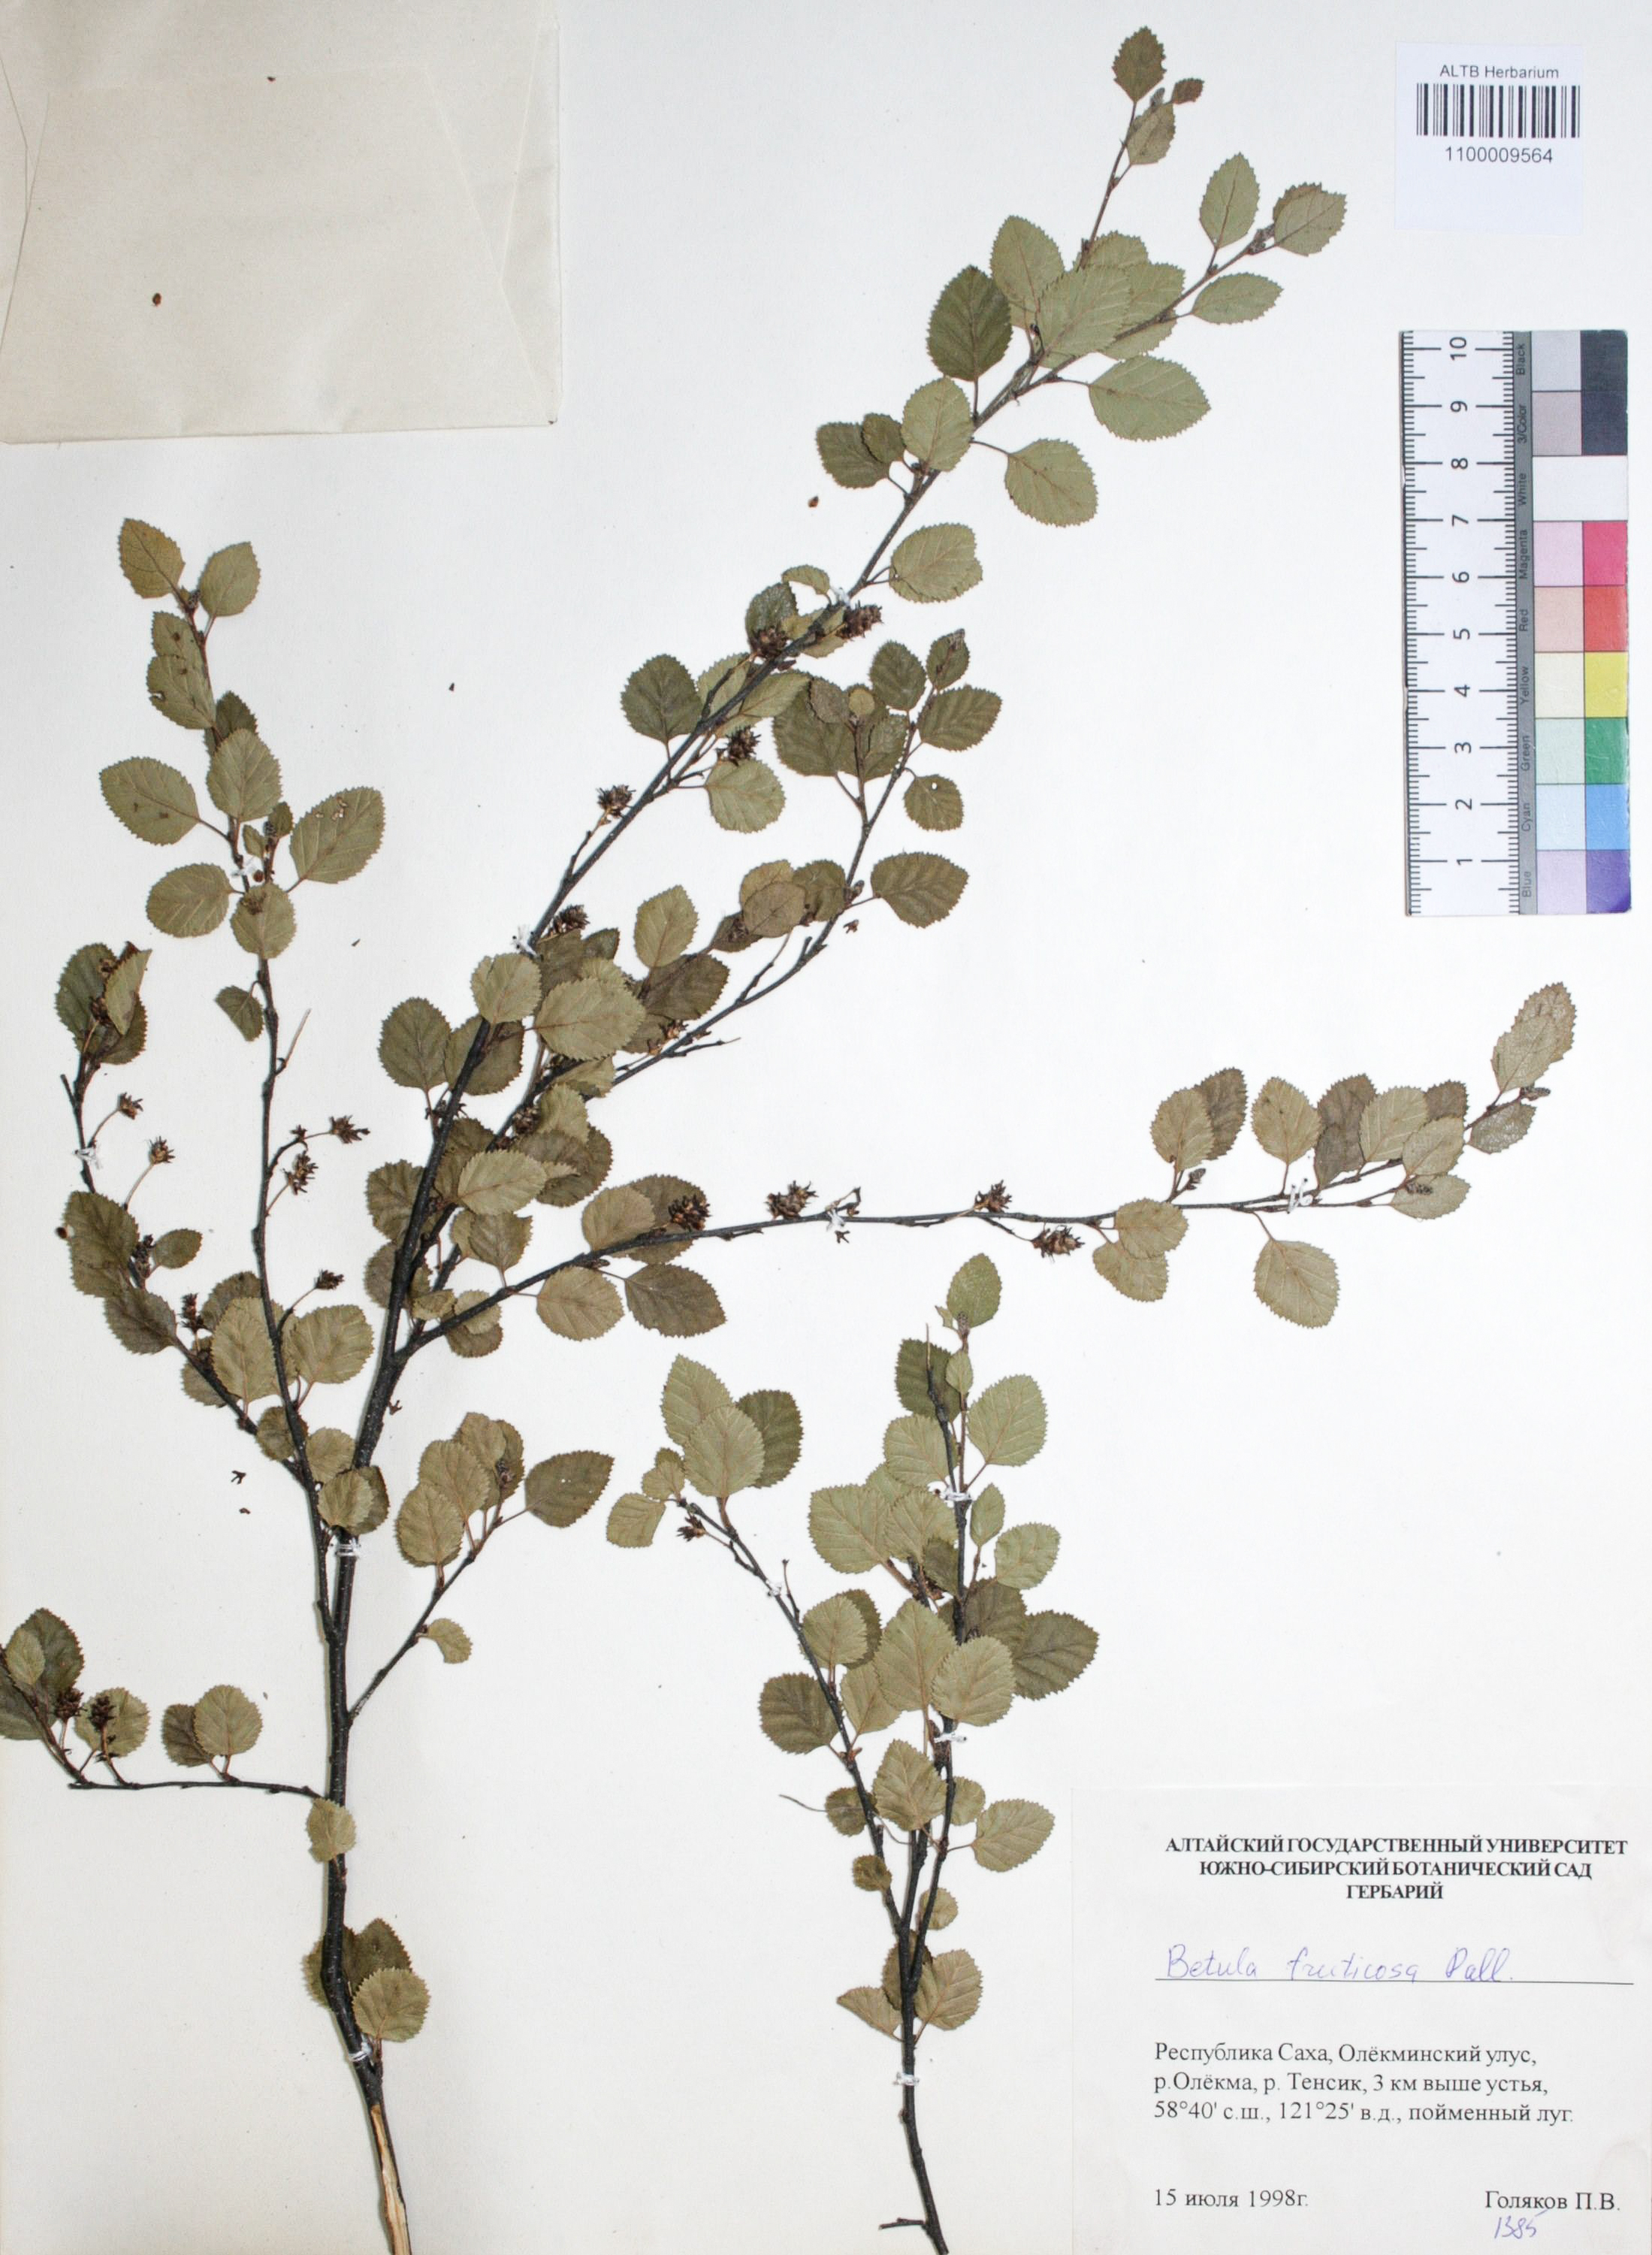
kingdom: Plantae
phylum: Tracheophyta
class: Magnoliopsida
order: Fagales
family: Betulaceae
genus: Betula
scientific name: Betula fruticosa
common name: Japanese bog birch
